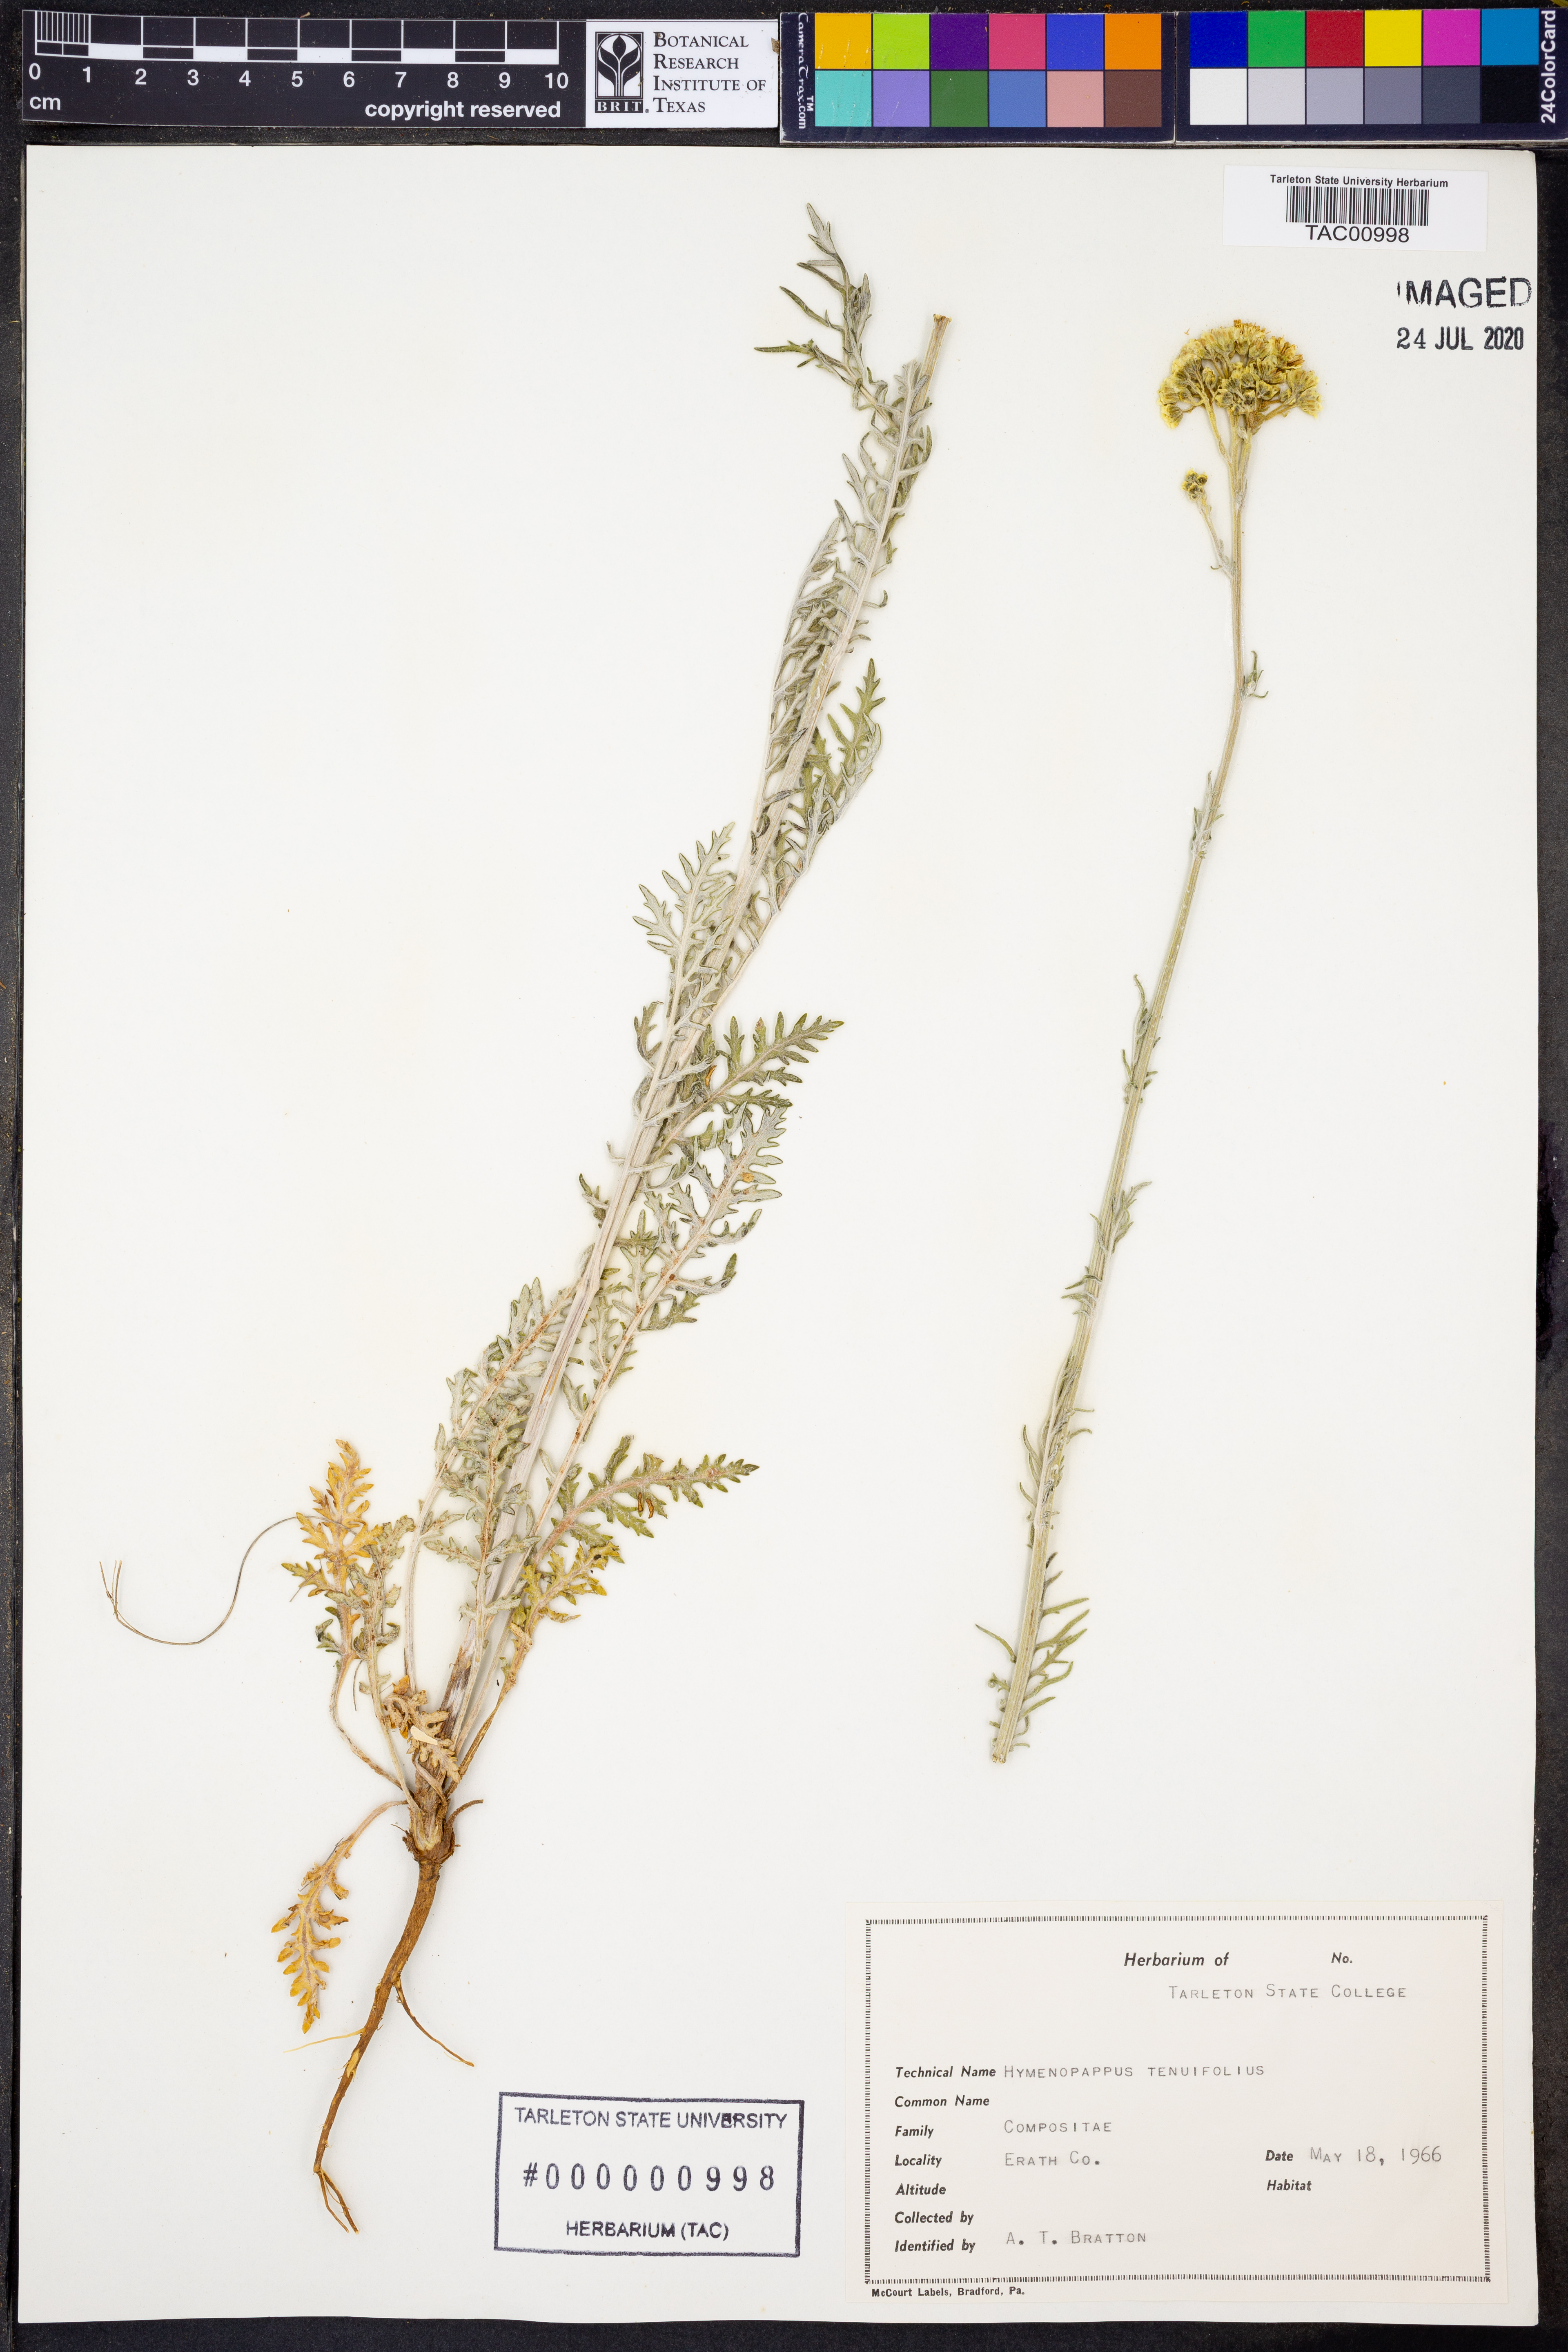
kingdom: Plantae
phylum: Tracheophyta
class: Magnoliopsida
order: Asterales
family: Asteraceae
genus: Hymenopappus
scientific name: Hymenopappus tenuifolius
